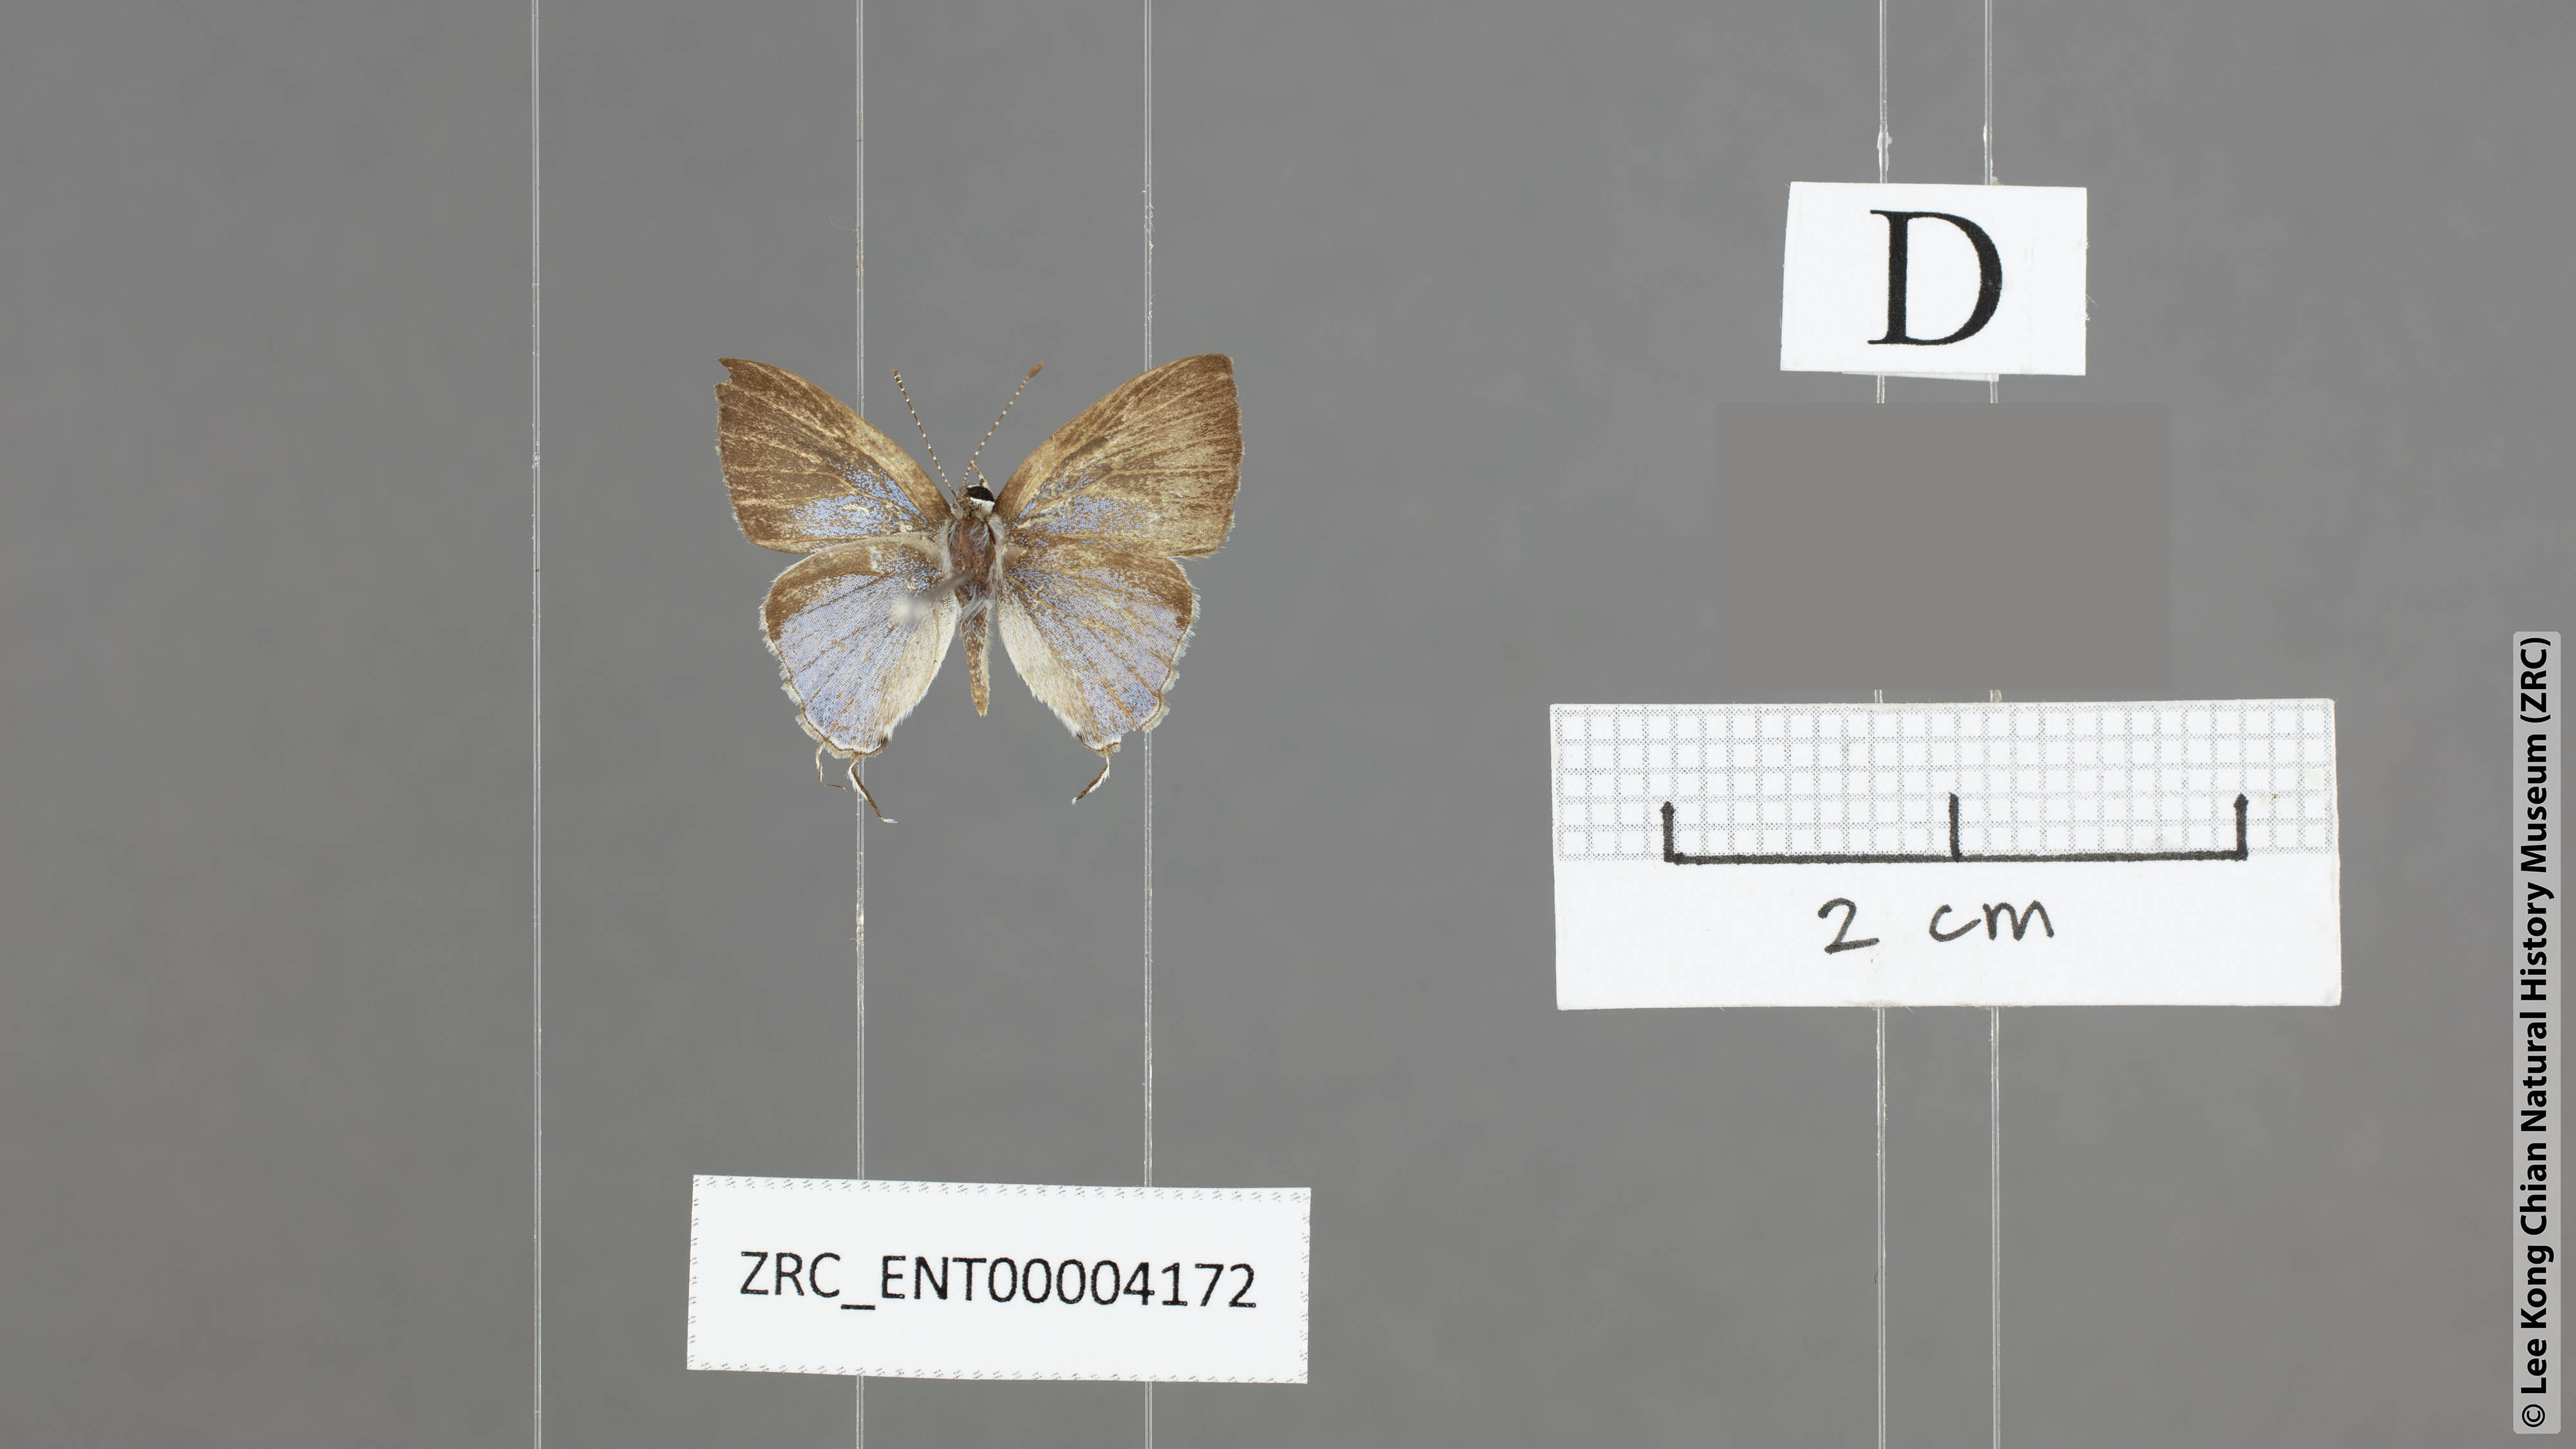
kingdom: Animalia
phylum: Arthropoda
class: Insecta
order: Lepidoptera
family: Lycaenidae
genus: Chliaria
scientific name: Chliaria othona
